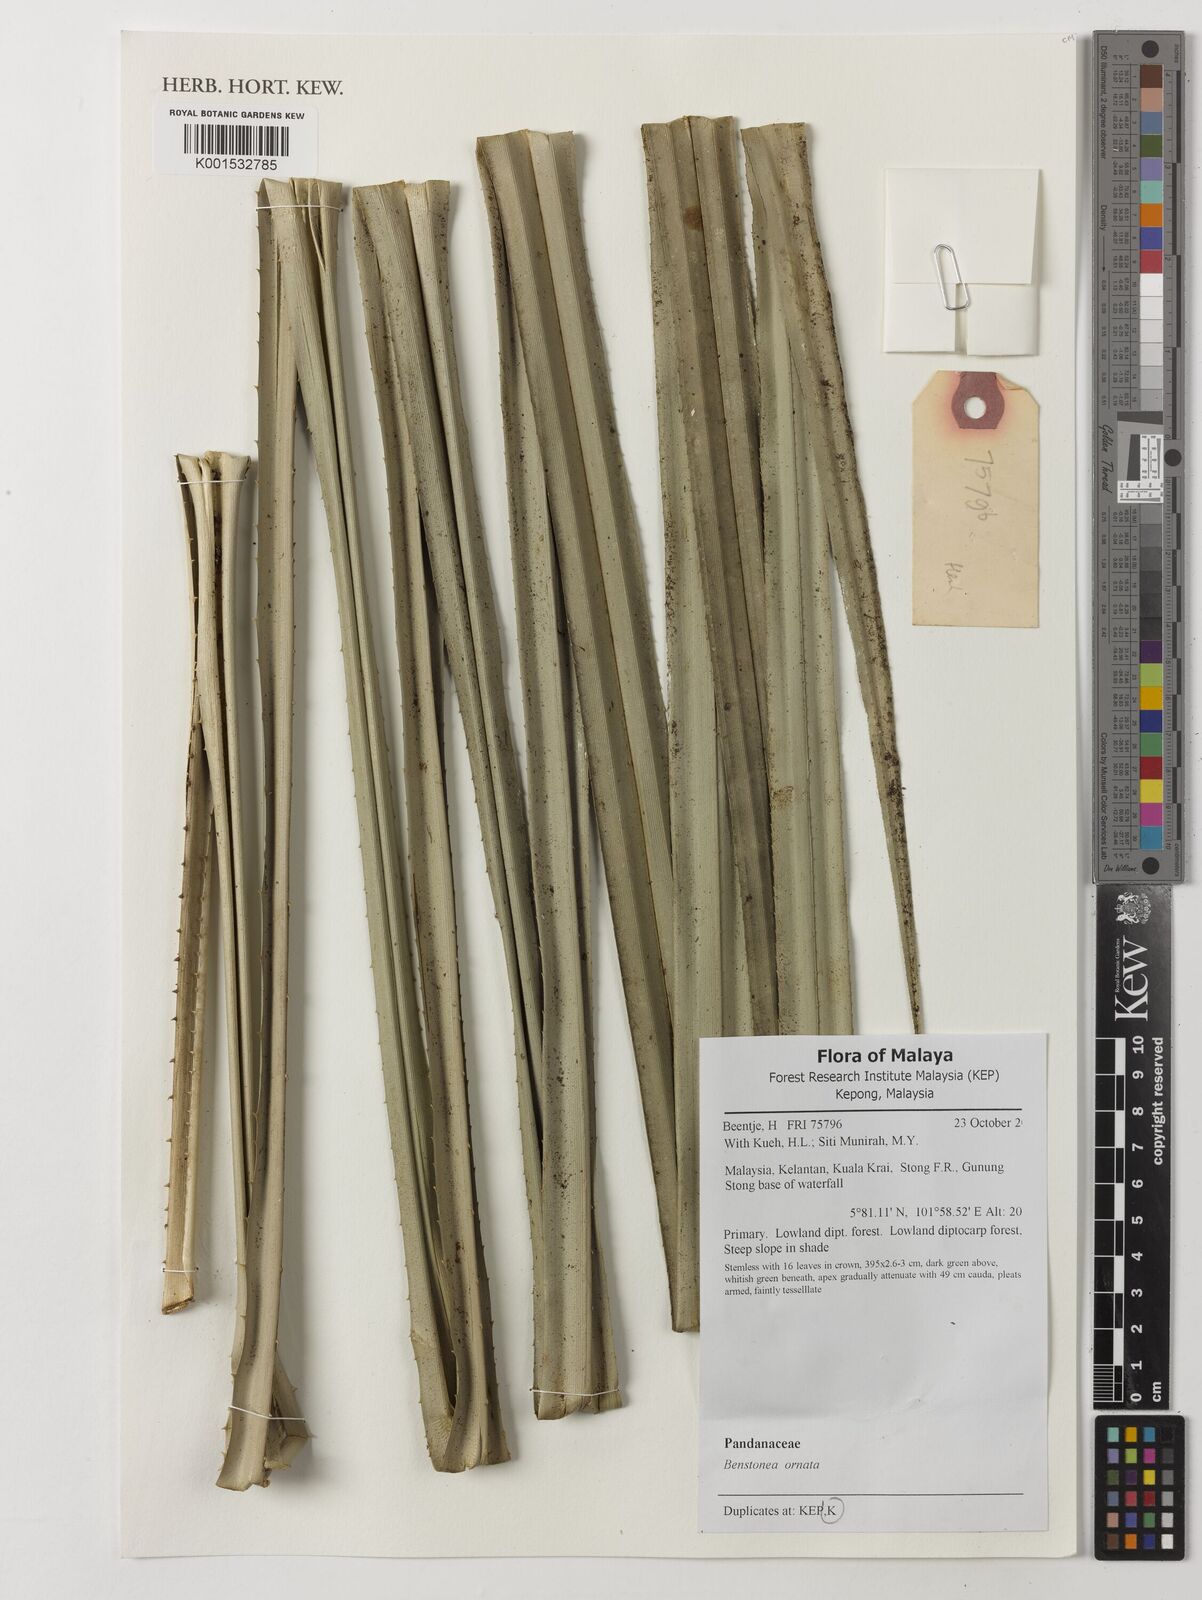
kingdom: Plantae
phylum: Tracheophyta
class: Liliopsida
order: Pandanales
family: Pandanaceae
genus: Pandanus
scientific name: Pandanus ornatus
